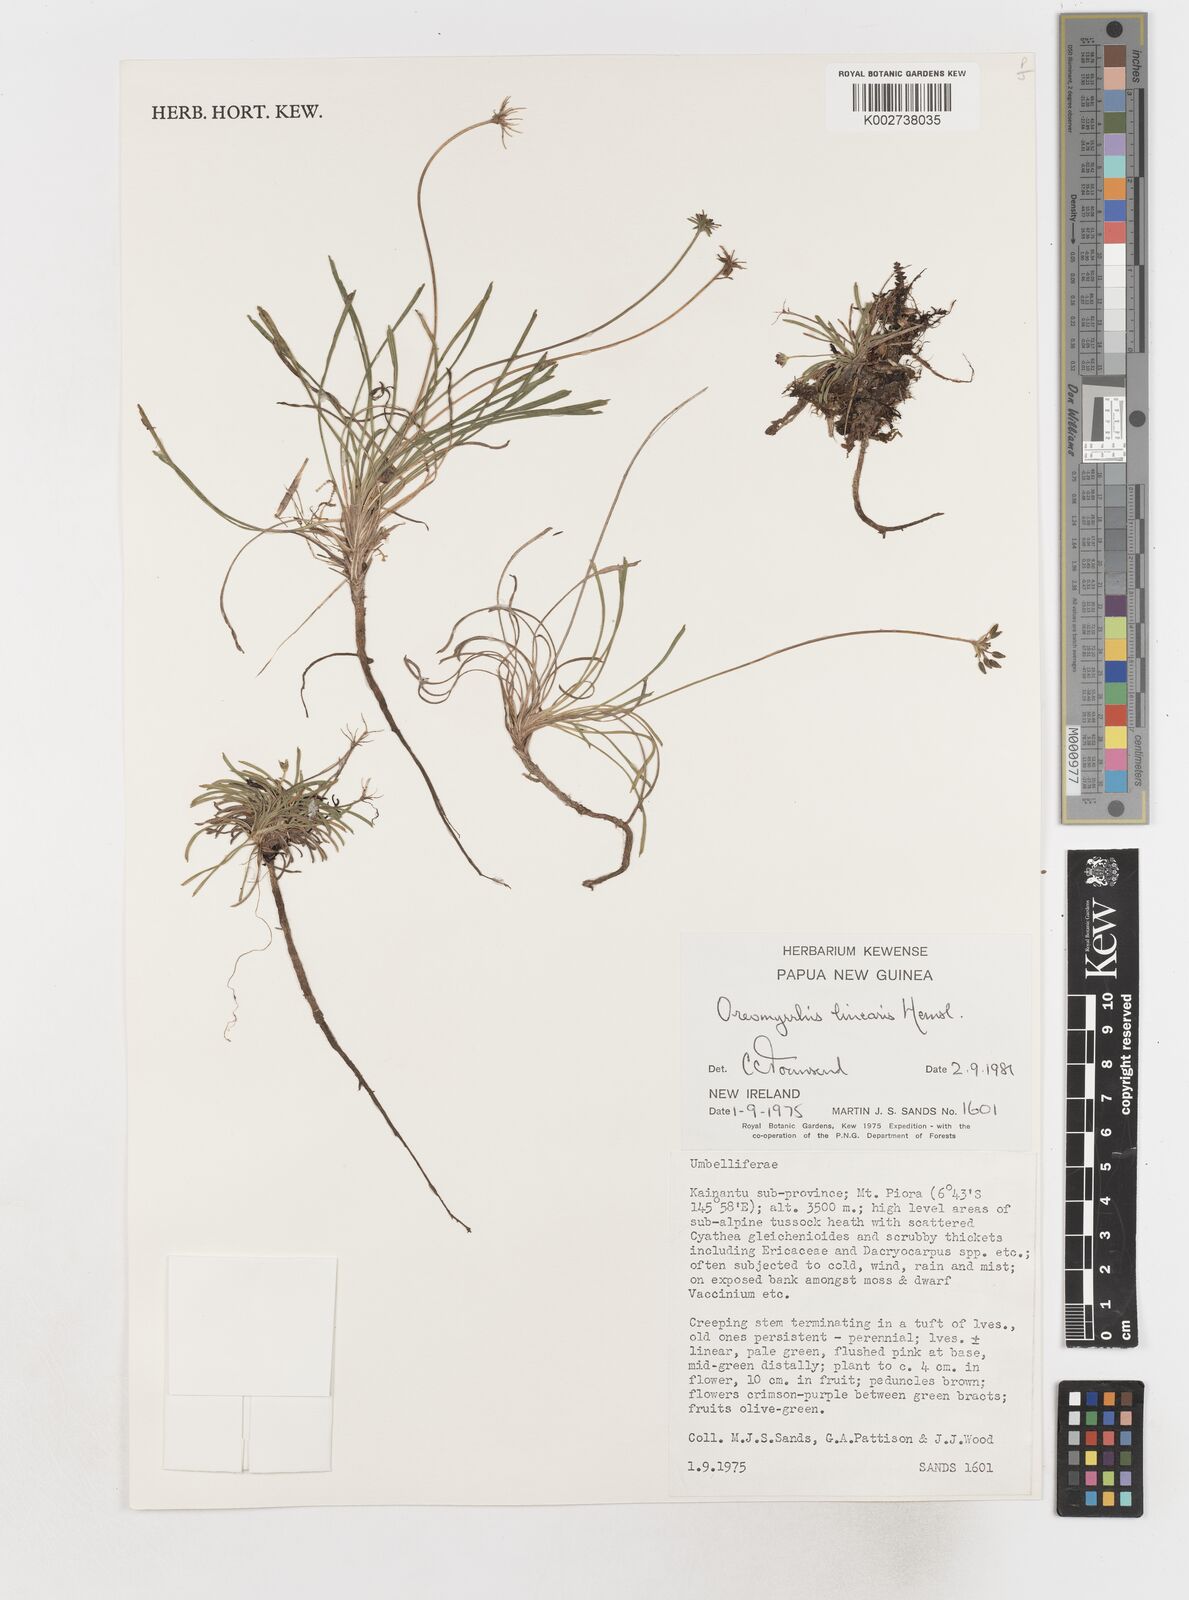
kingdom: Plantae
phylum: Tracheophyta
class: Magnoliopsida
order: Apiales
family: Apiaceae
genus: Chaerophyllum
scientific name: Chaerophyllum lineare
